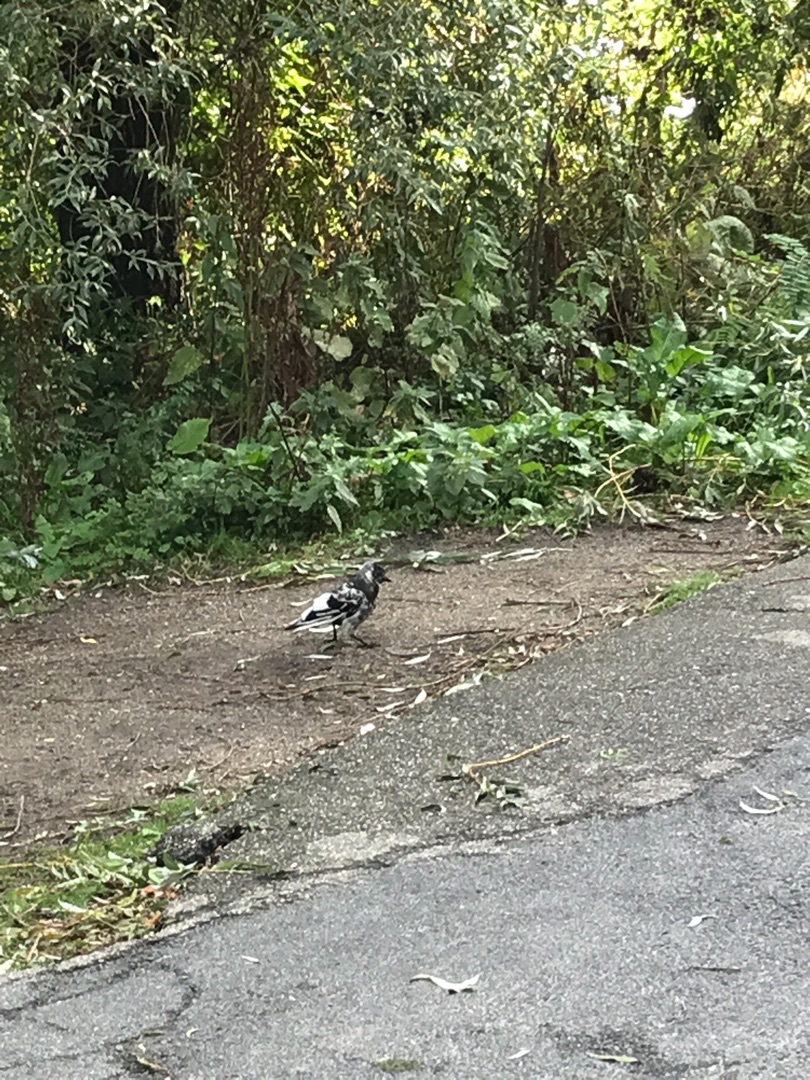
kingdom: Animalia
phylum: Chordata
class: Aves
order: Passeriformes
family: Corvidae
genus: Coloeus
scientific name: Coloeus monedula
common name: Allike
